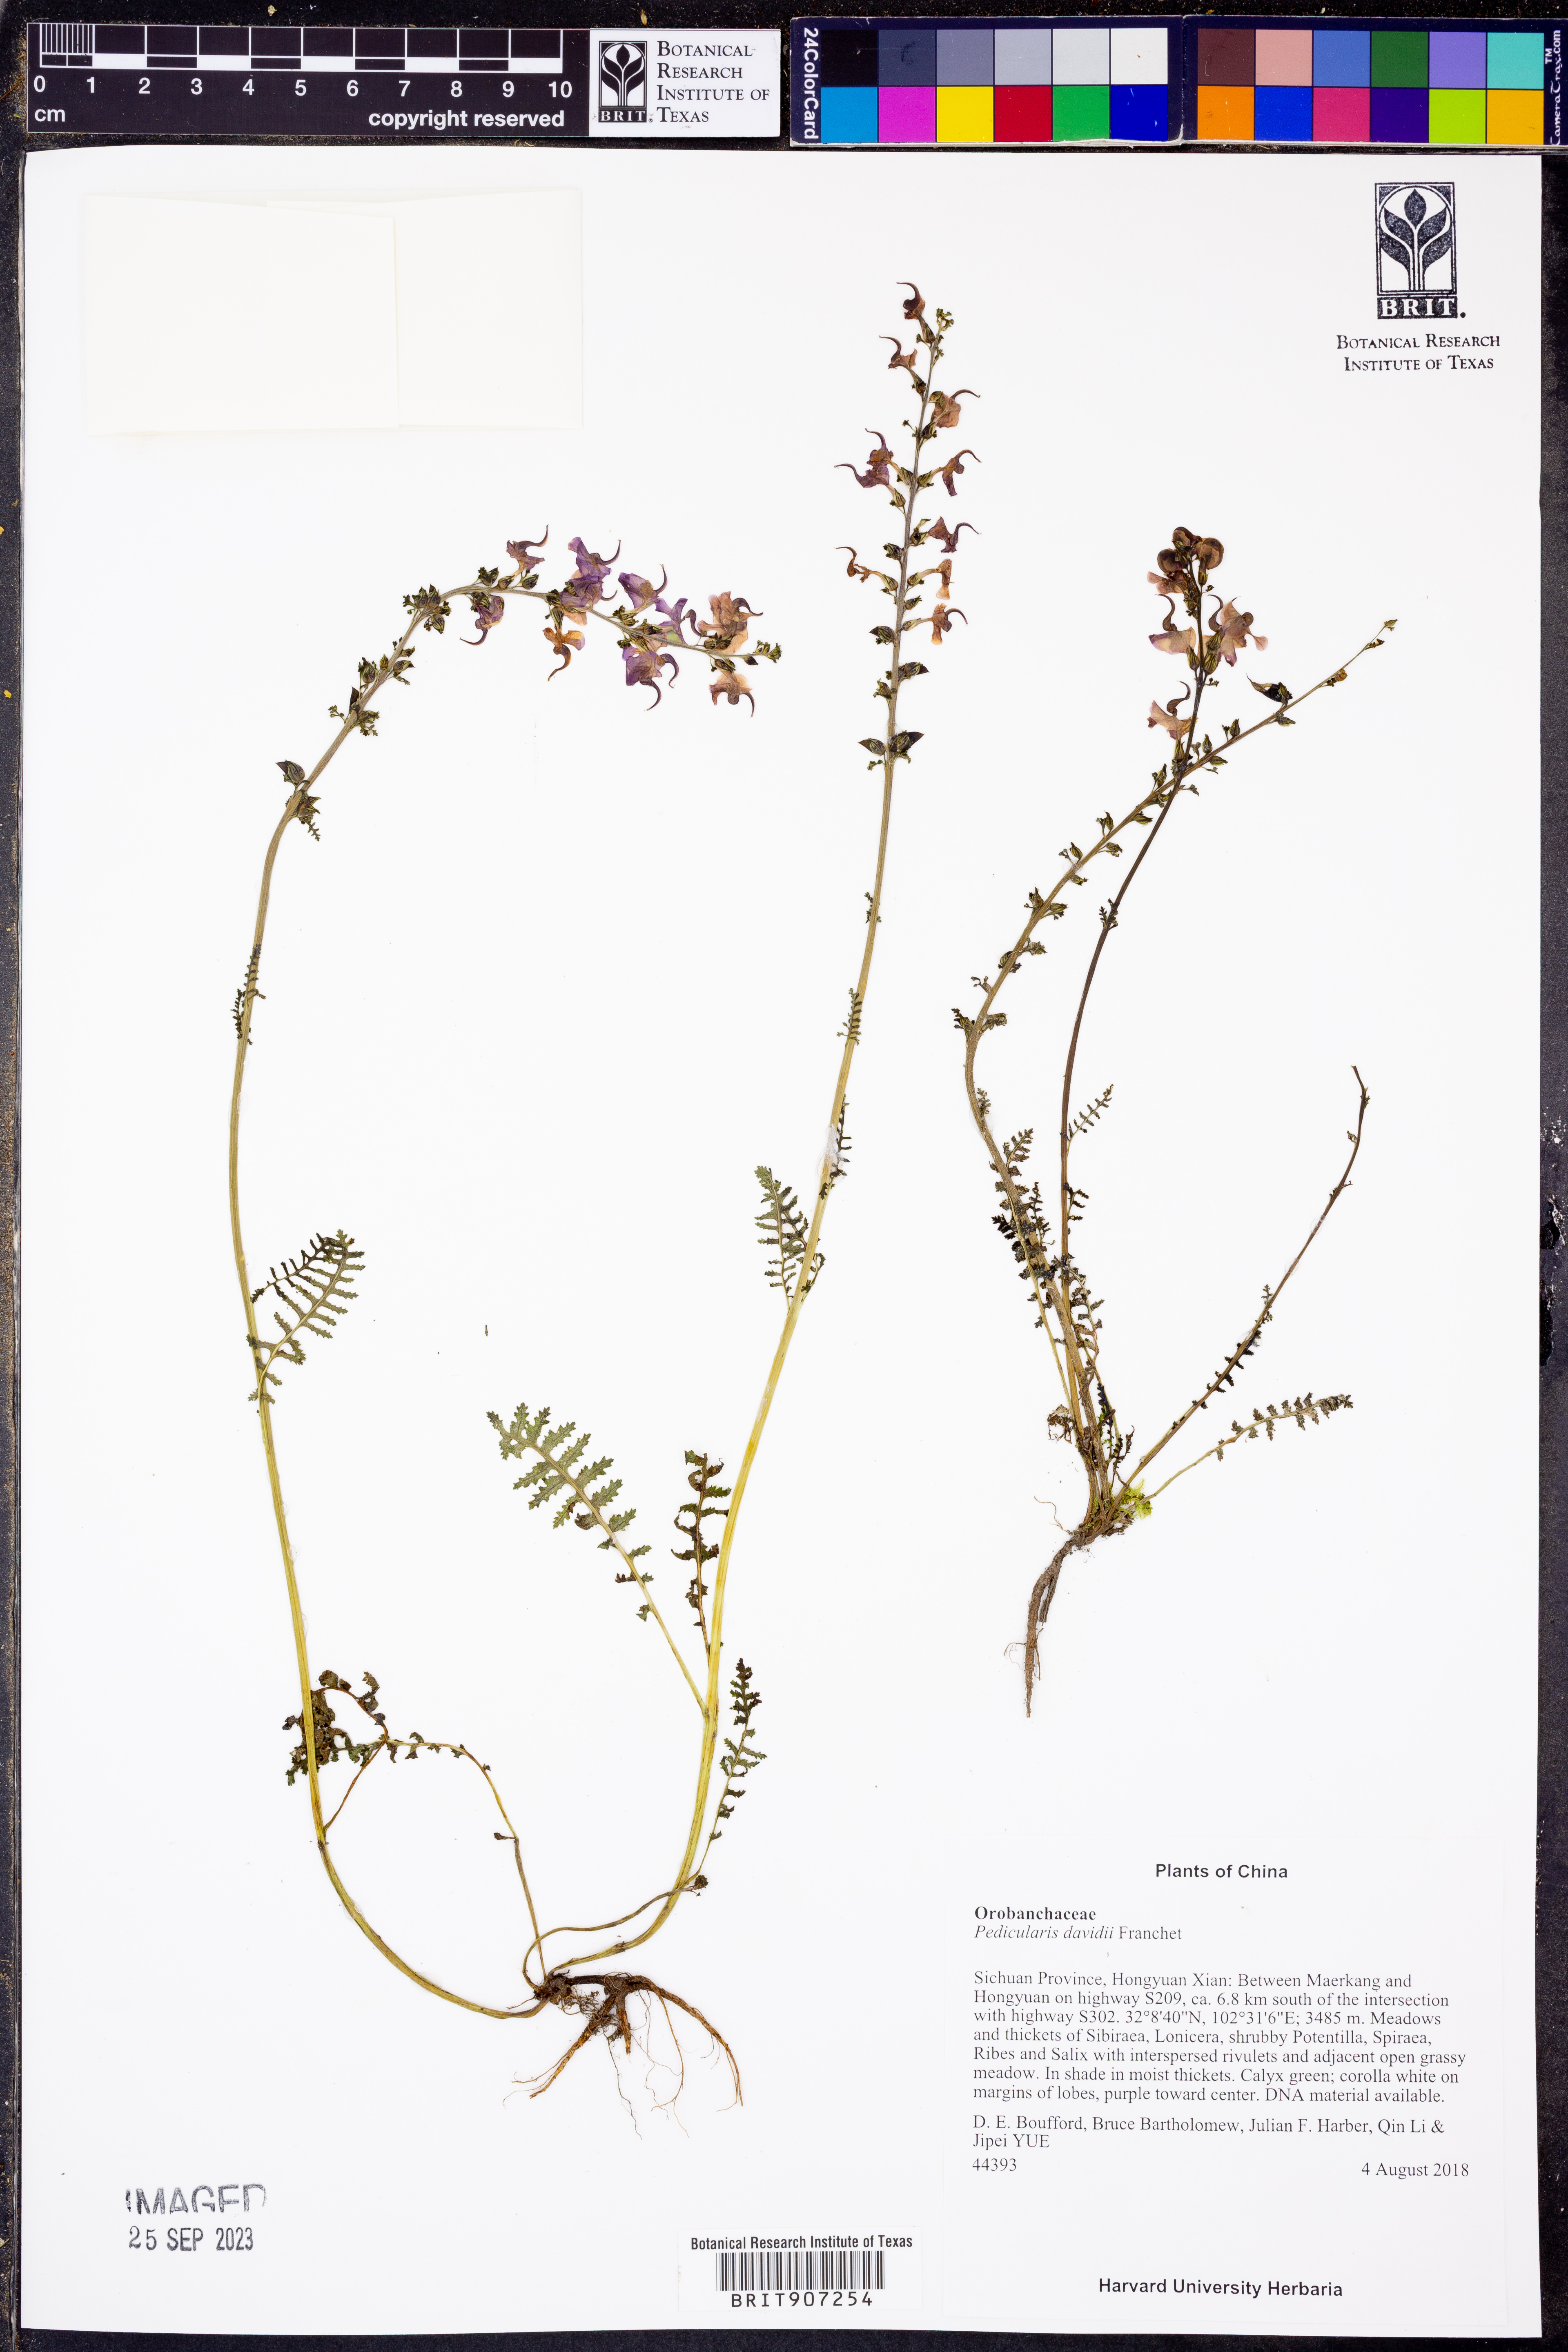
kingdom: Plantae
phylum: Tracheophyta
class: Magnoliopsida
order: Lamiales
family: Orobanchaceae
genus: Pedicularis
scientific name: Pedicularis davidii
